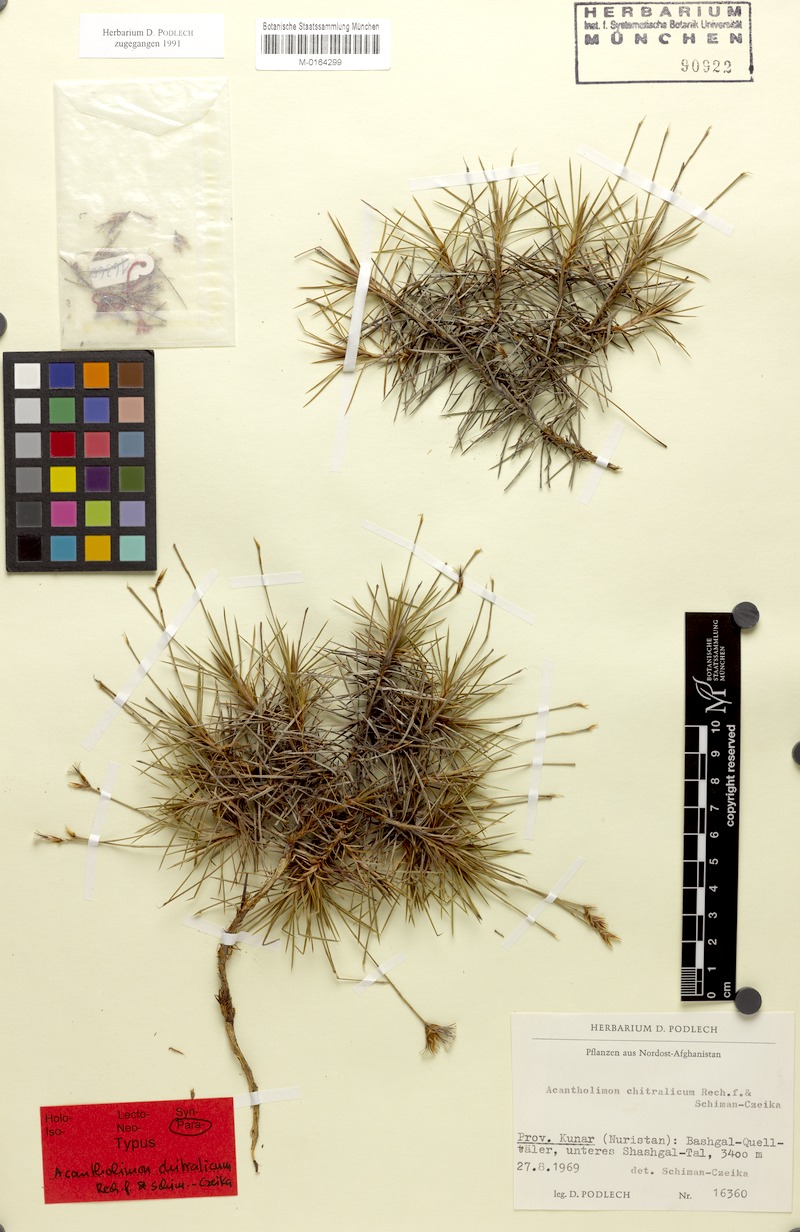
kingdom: Plantae
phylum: Tracheophyta
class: Magnoliopsida
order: Caryophyllales
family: Plumbaginaceae
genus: Acantholimon
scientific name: Acantholimon chitralicum
